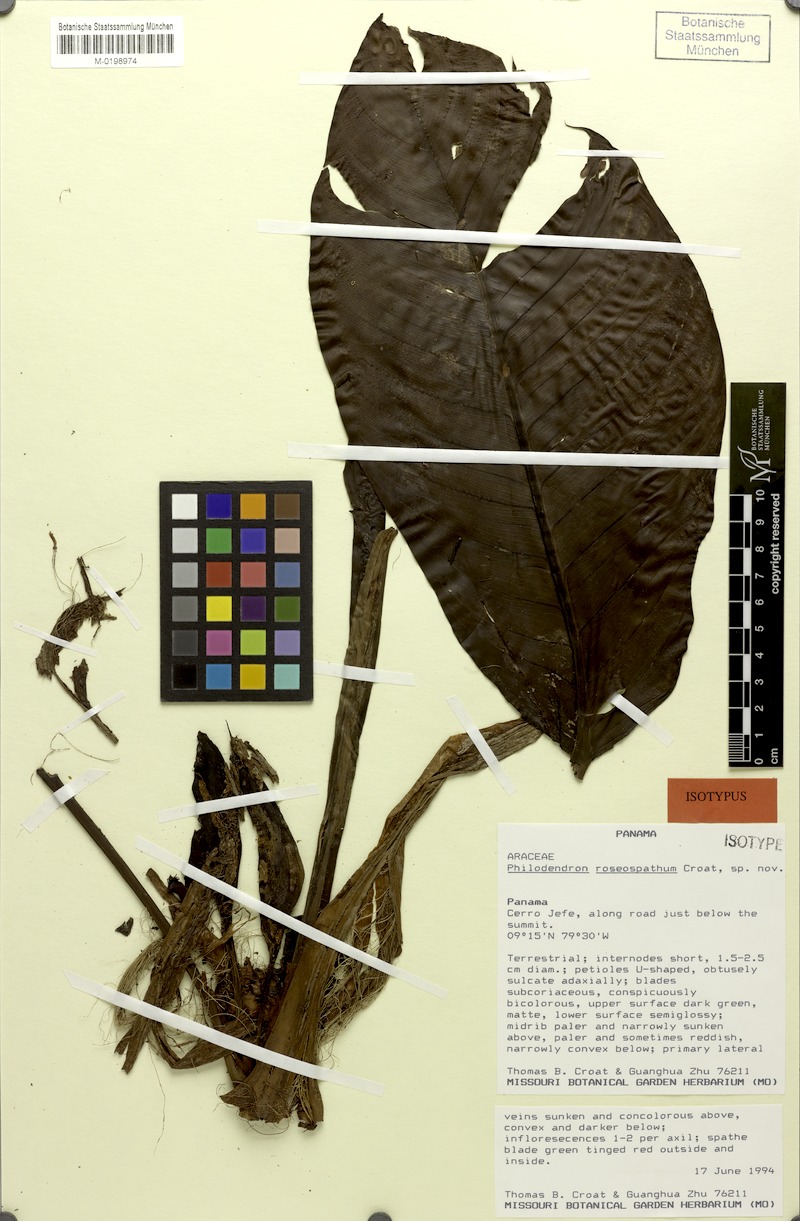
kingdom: Plantae
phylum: Tracheophyta
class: Liliopsida
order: Alismatales
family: Araceae
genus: Philodendron
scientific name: Philodendron roseospathum
